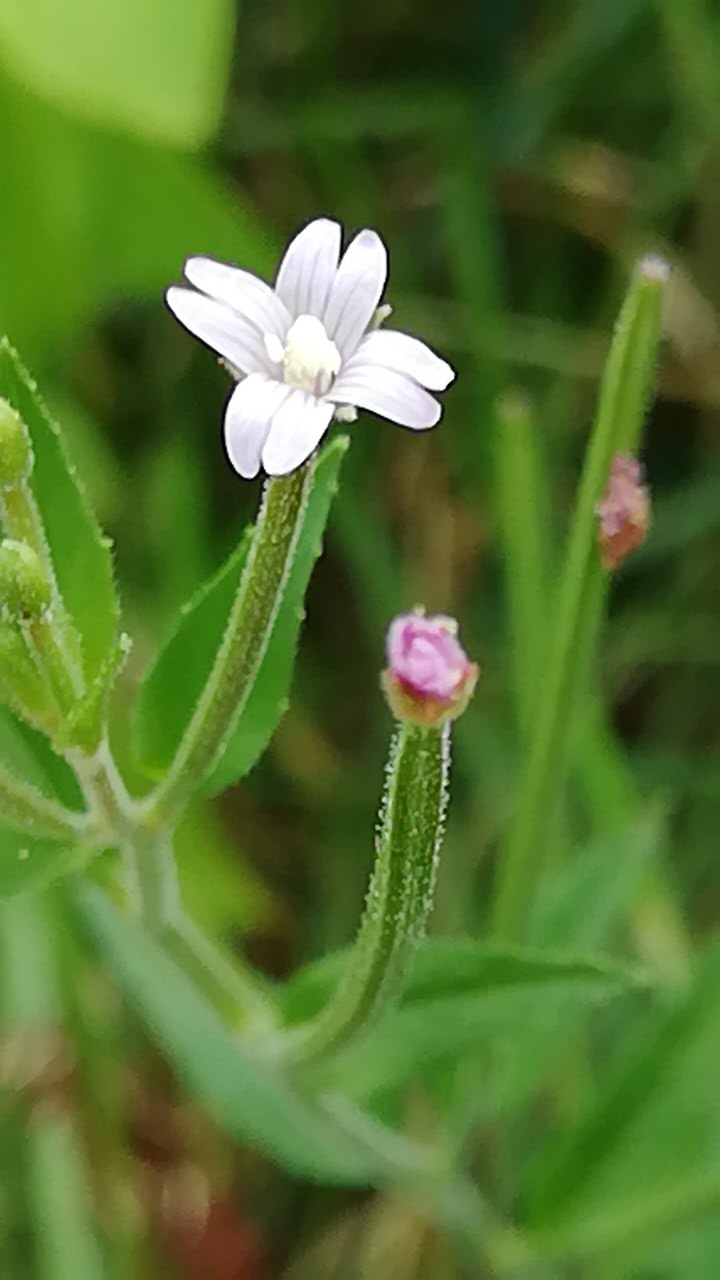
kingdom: Plantae
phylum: Tracheophyta
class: Magnoliopsida
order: Myrtales
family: Onagraceae
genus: Epilobium
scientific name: Epilobium ciliatum
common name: Kirtlet dueurt
